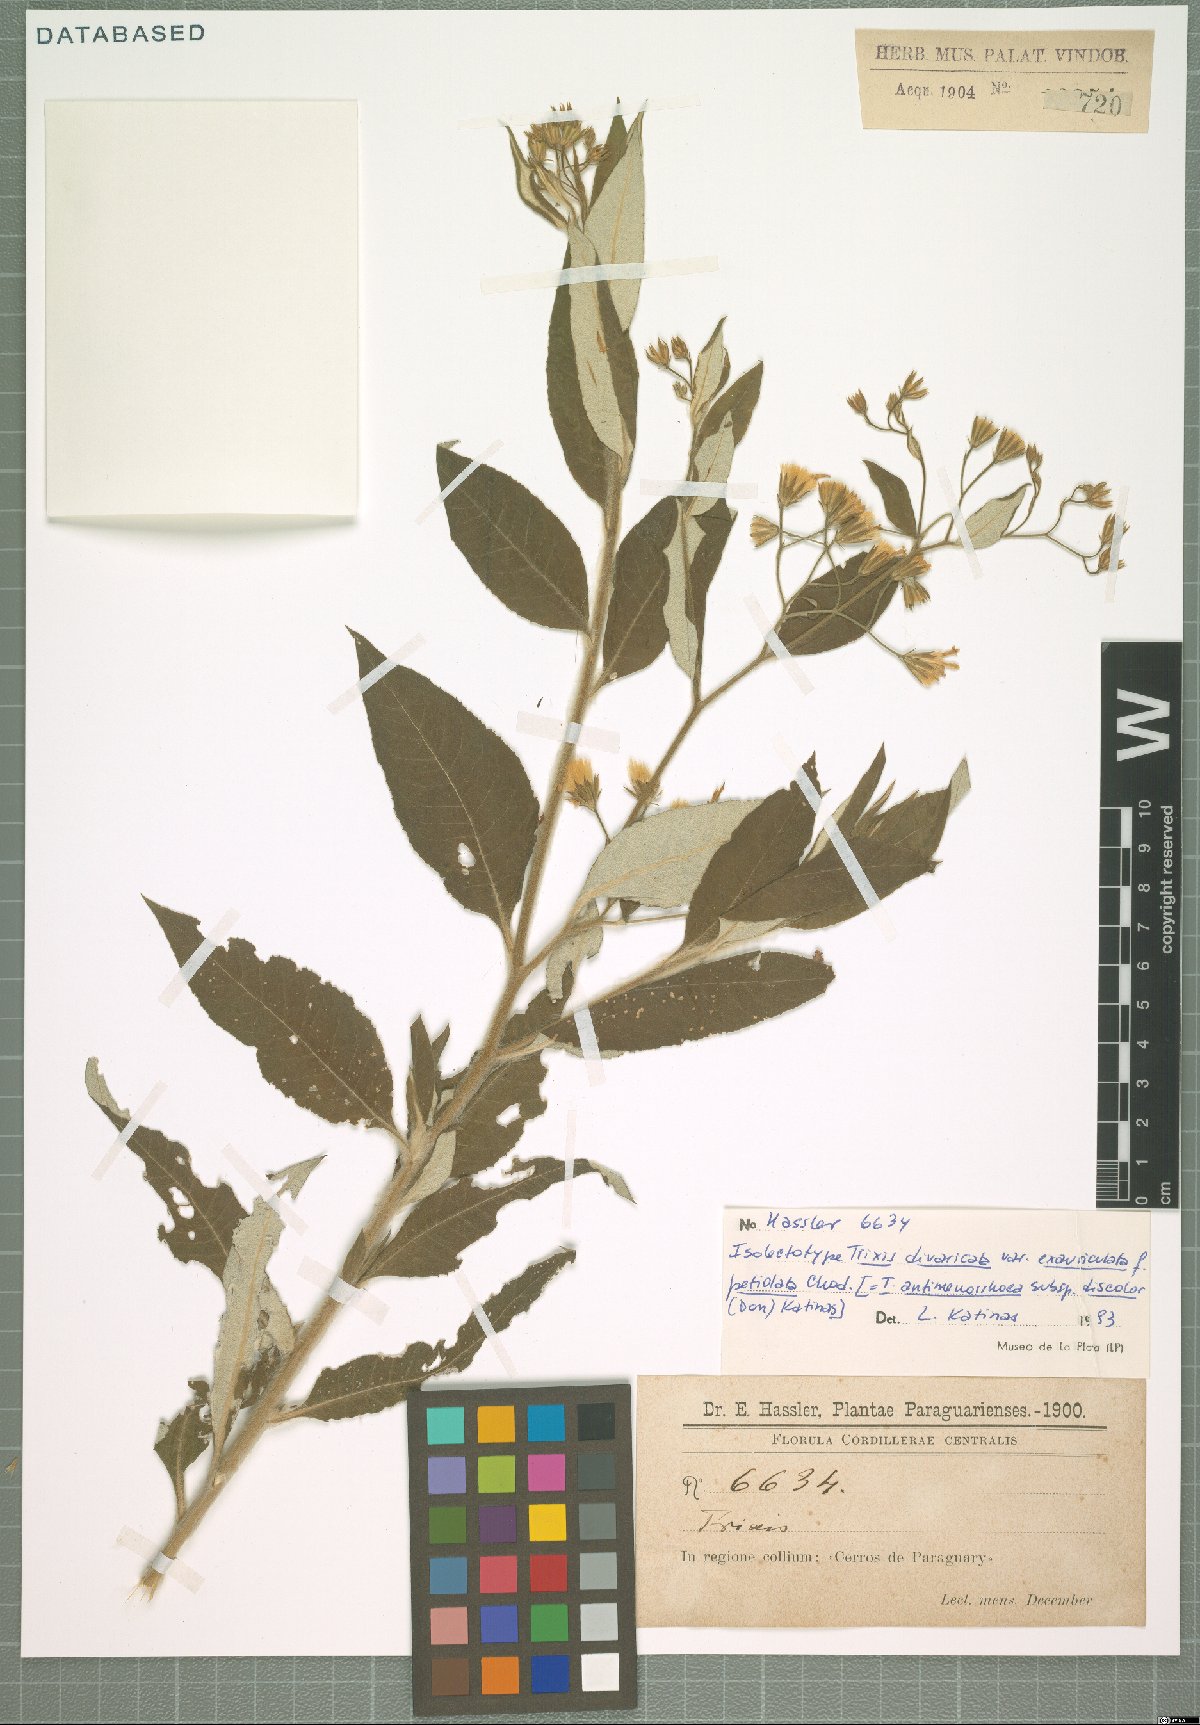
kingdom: Plantae
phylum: Tracheophyta
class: Magnoliopsida
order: Asterales
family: Asteraceae
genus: Trixis
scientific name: Trixis divaricata
